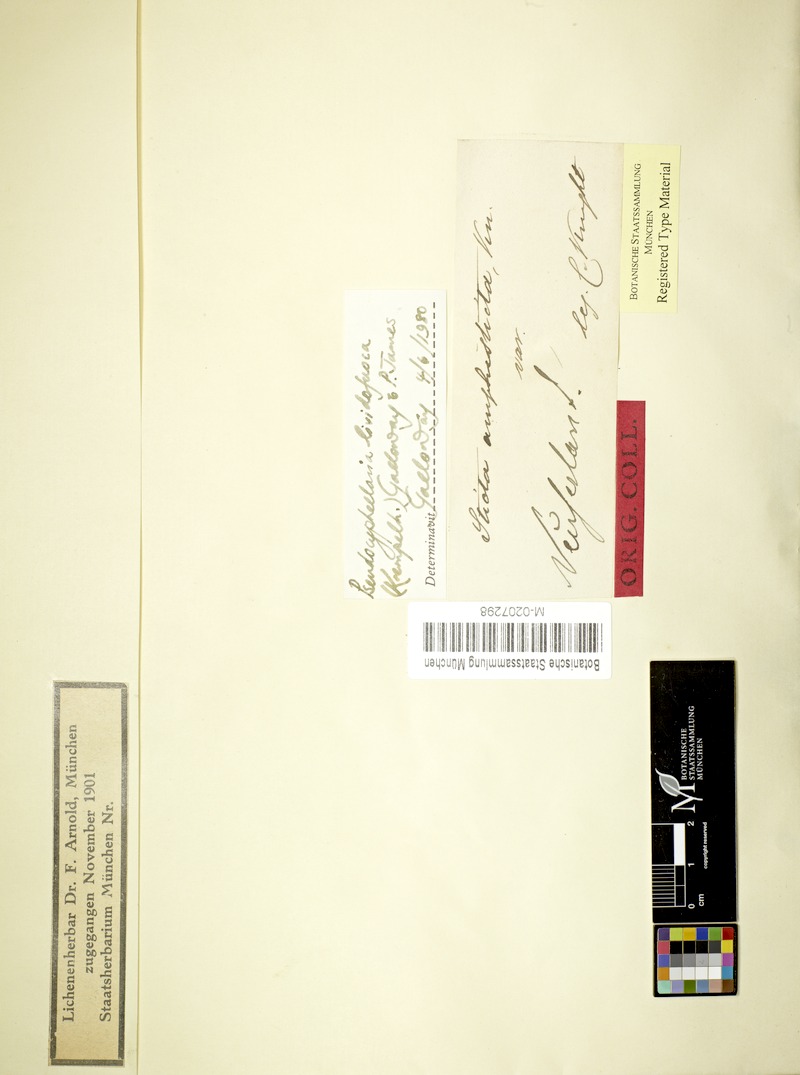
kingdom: Fungi
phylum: Ascomycota
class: Lecanoromycetes
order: Peltigerales
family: Lobariaceae
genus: Pseudocyphellaria
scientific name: Pseudocyphellaria lividofusca
